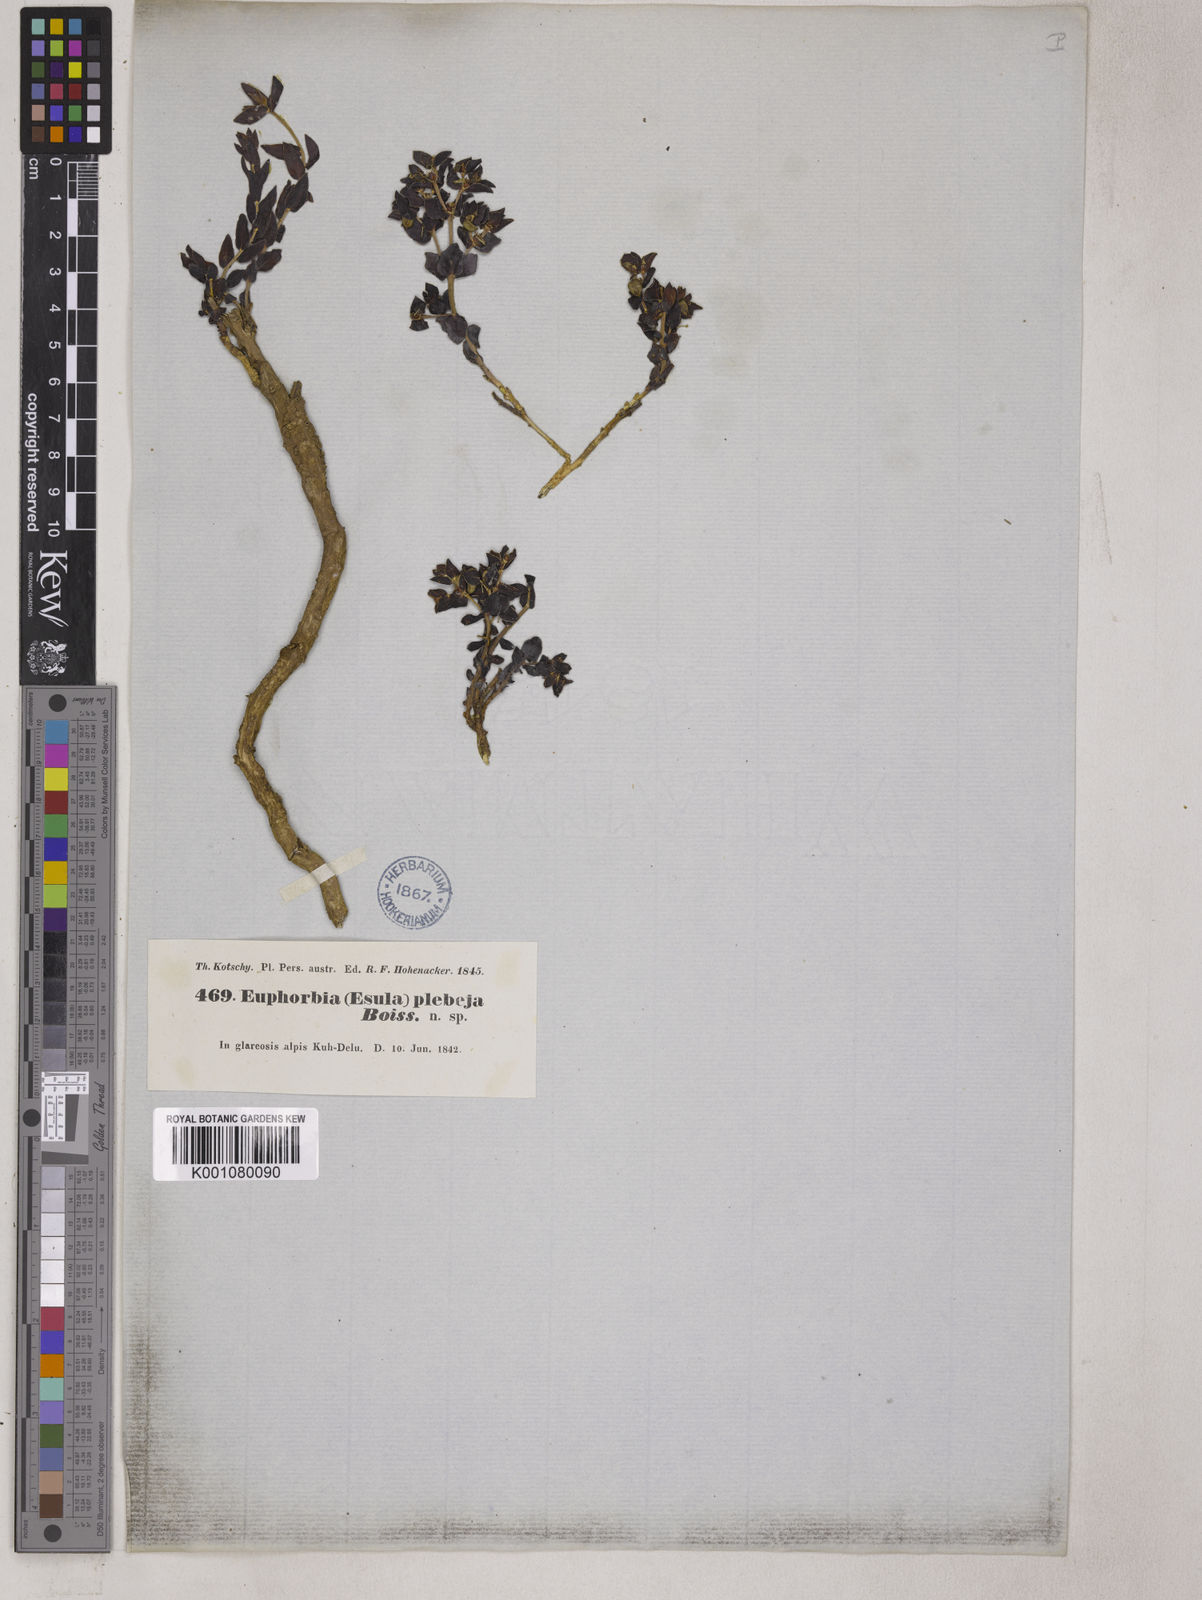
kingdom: Plantae
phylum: Tracheophyta
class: Magnoliopsida
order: Malpighiales
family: Euphorbiaceae
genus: Euphorbia
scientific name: Euphorbia plebeia
